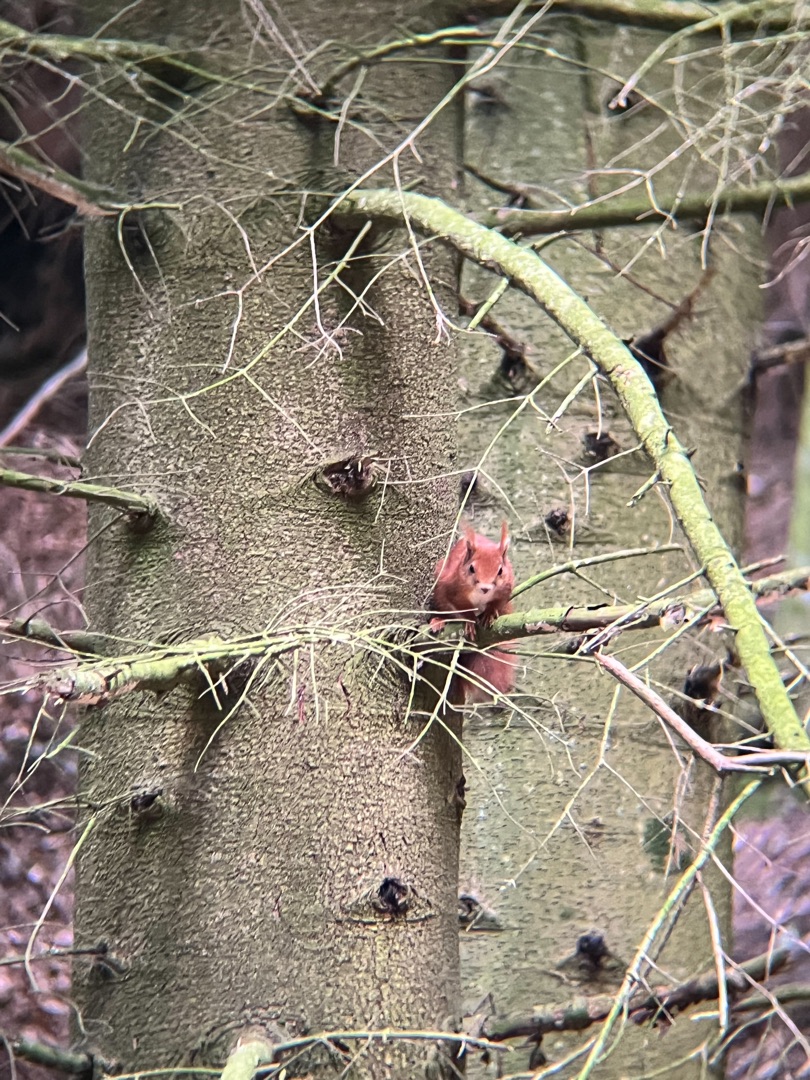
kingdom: Animalia
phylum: Chordata
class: Mammalia
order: Rodentia
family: Sciuridae
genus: Sciurus
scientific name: Sciurus vulgaris
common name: Egern
